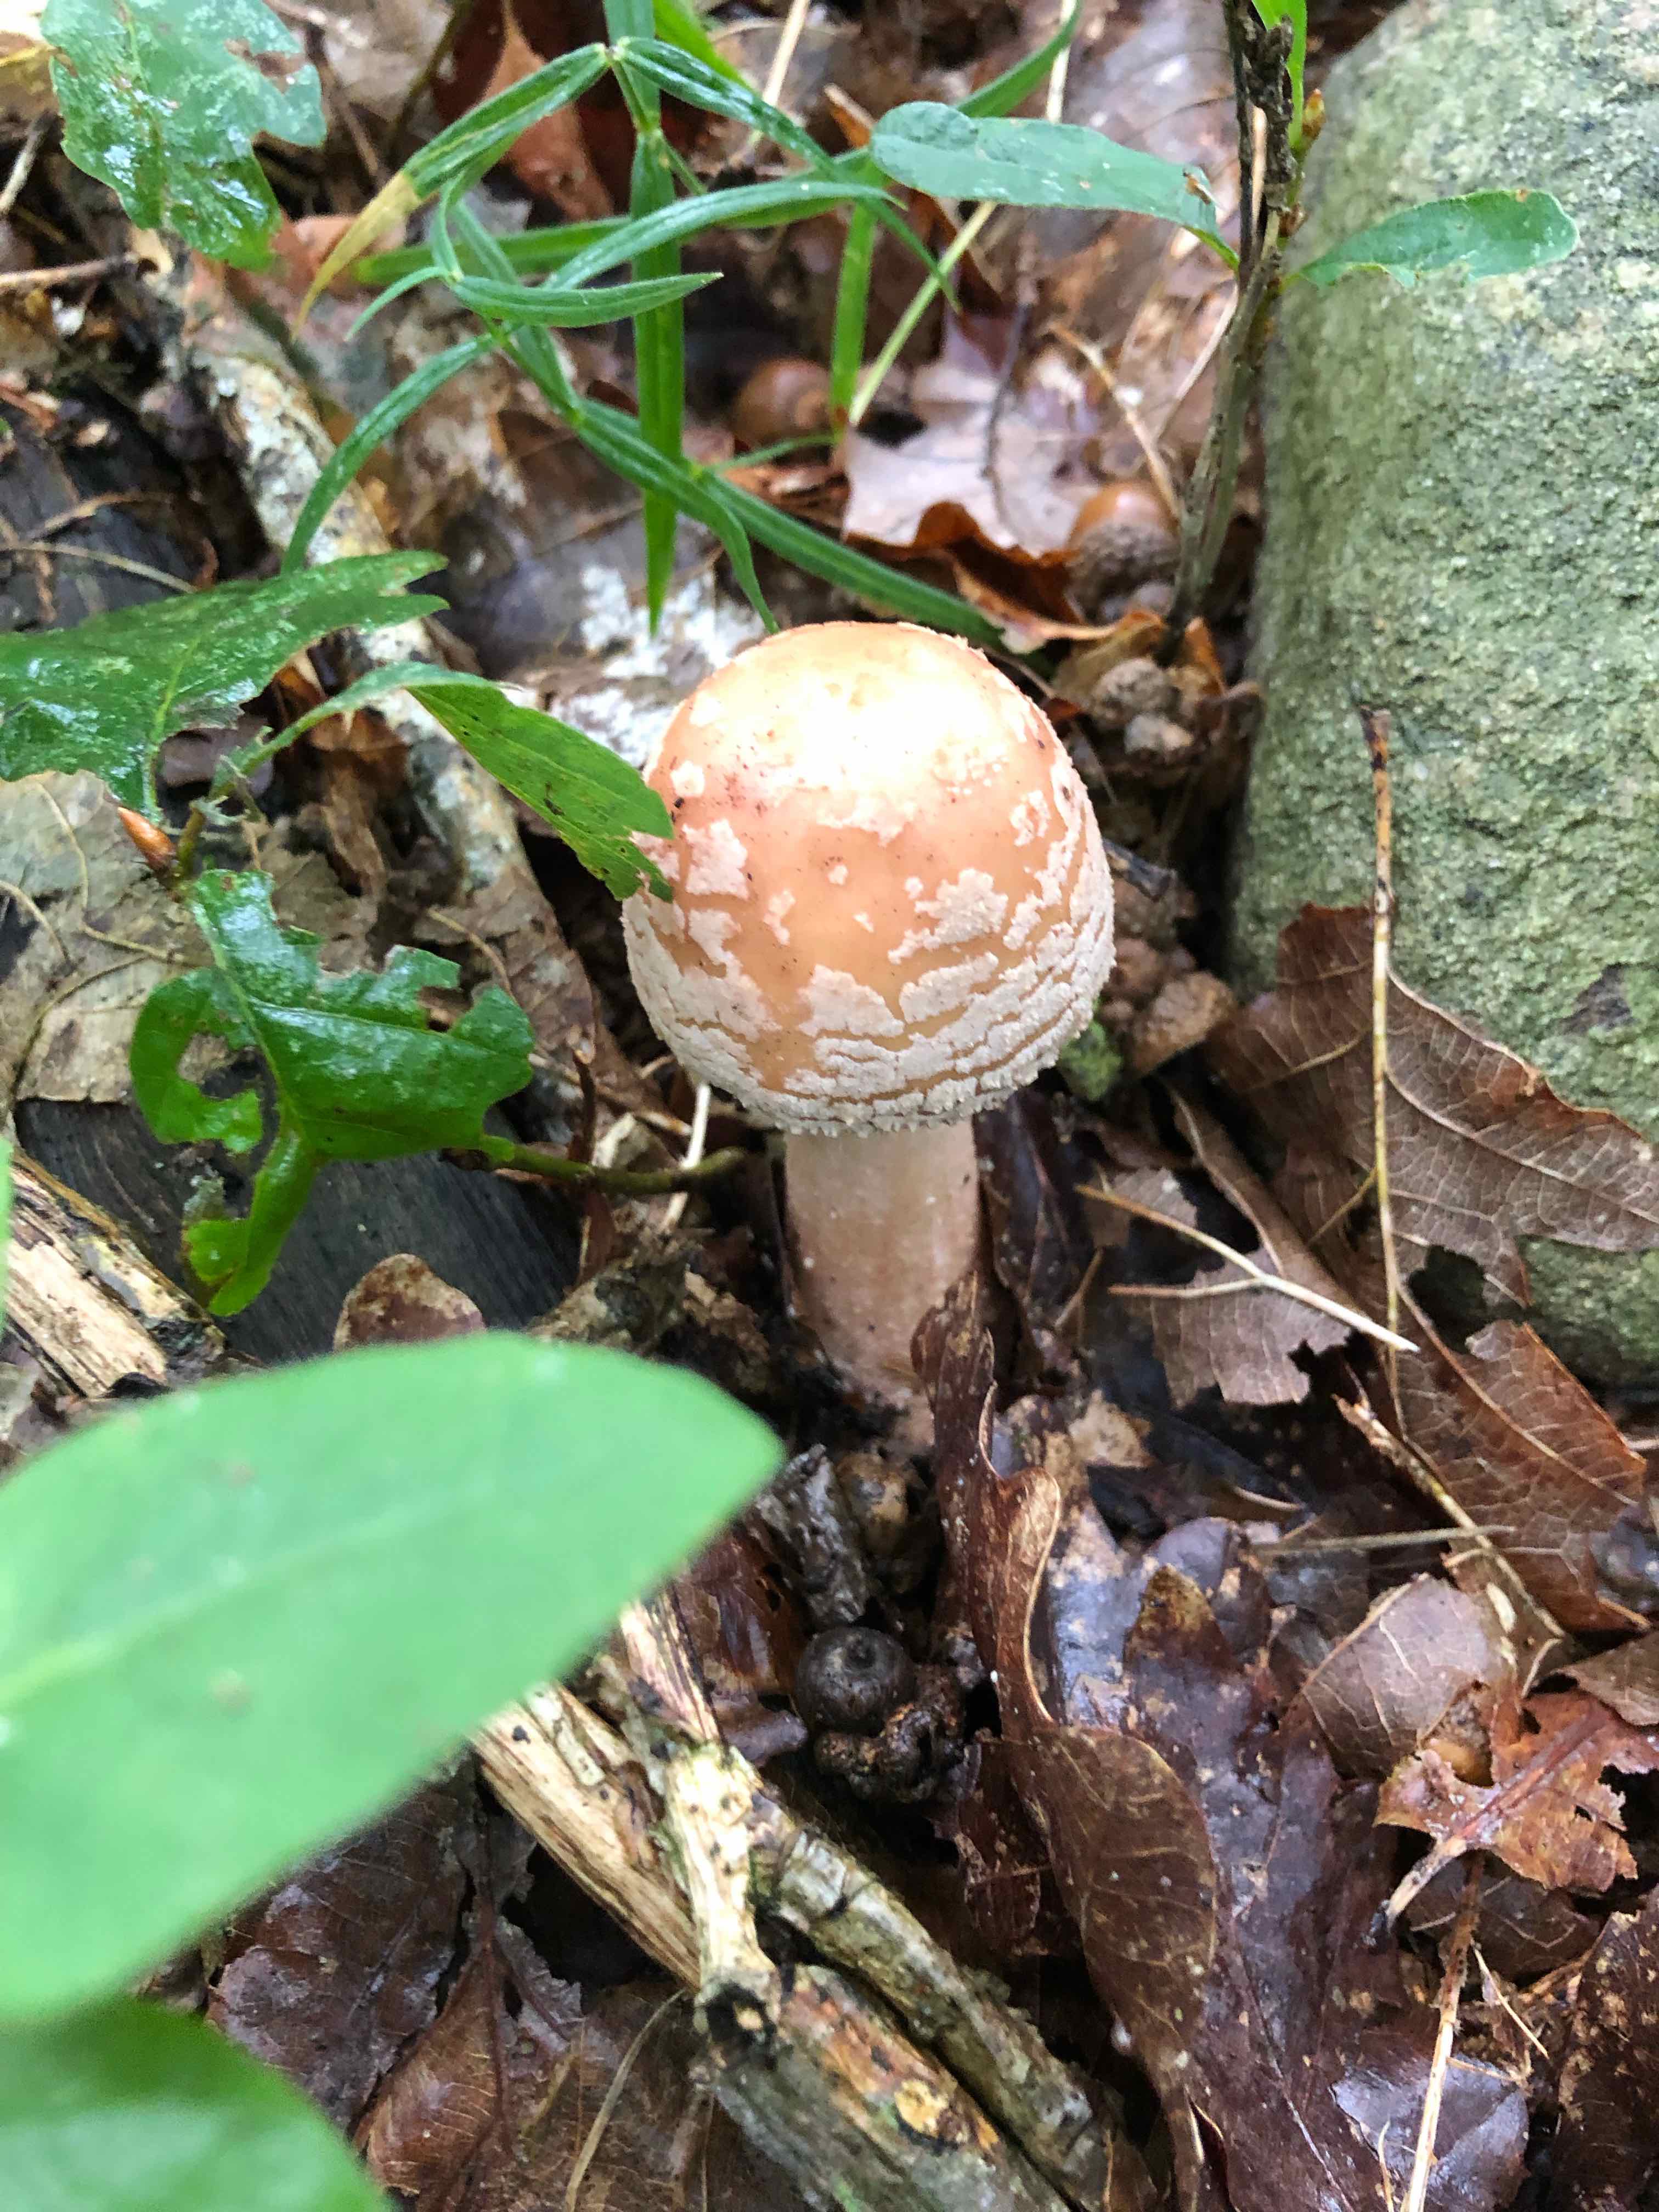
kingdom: Fungi
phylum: Basidiomycota
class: Agaricomycetes
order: Agaricales
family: Amanitaceae
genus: Amanita
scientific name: Amanita rubescens
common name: rødmende fluesvamp
